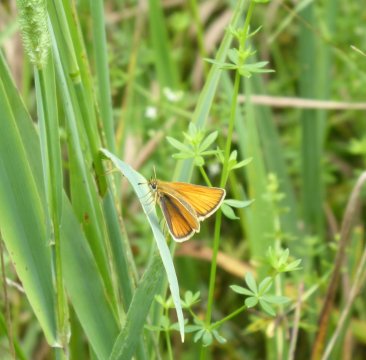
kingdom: Animalia
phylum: Arthropoda
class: Insecta
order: Lepidoptera
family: Hesperiidae
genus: Thymelicus
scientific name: Thymelicus lineola
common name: European Skipper
